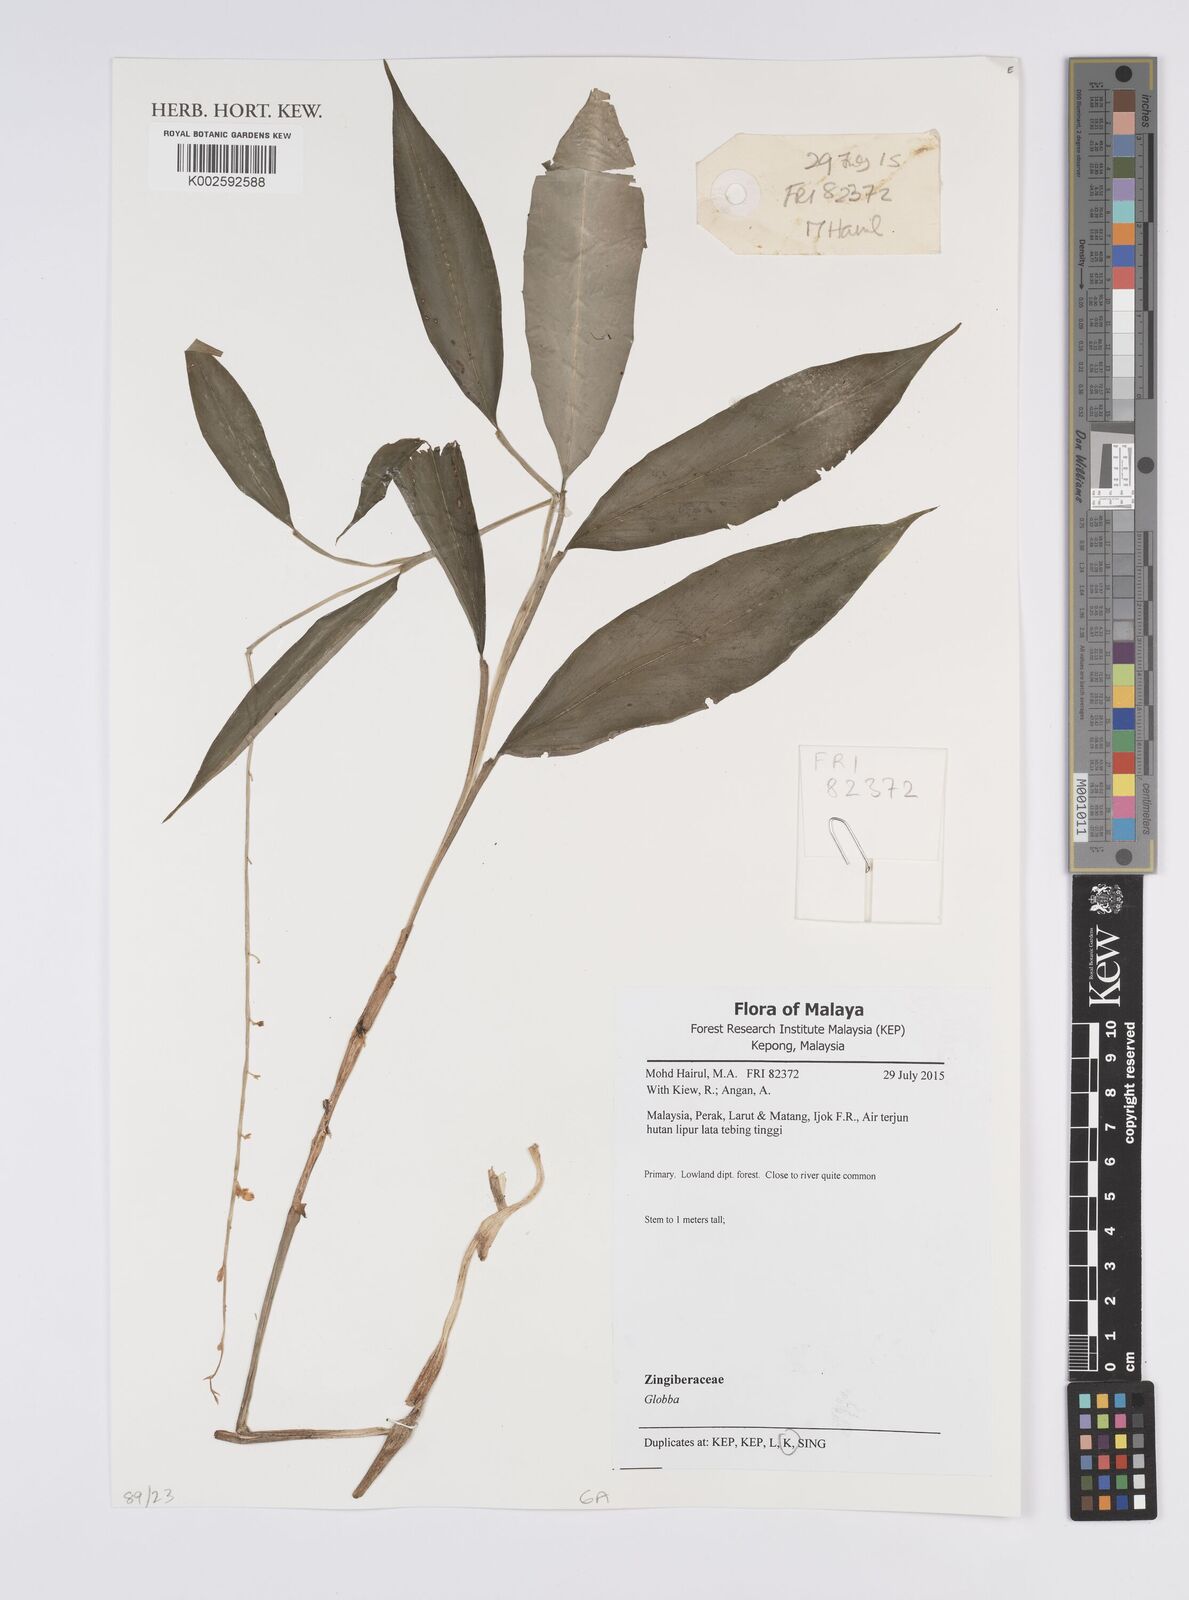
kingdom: Plantae
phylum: Tracheophyta
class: Liliopsida
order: Zingiberales
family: Zingiberaceae
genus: Globba
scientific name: Globba
